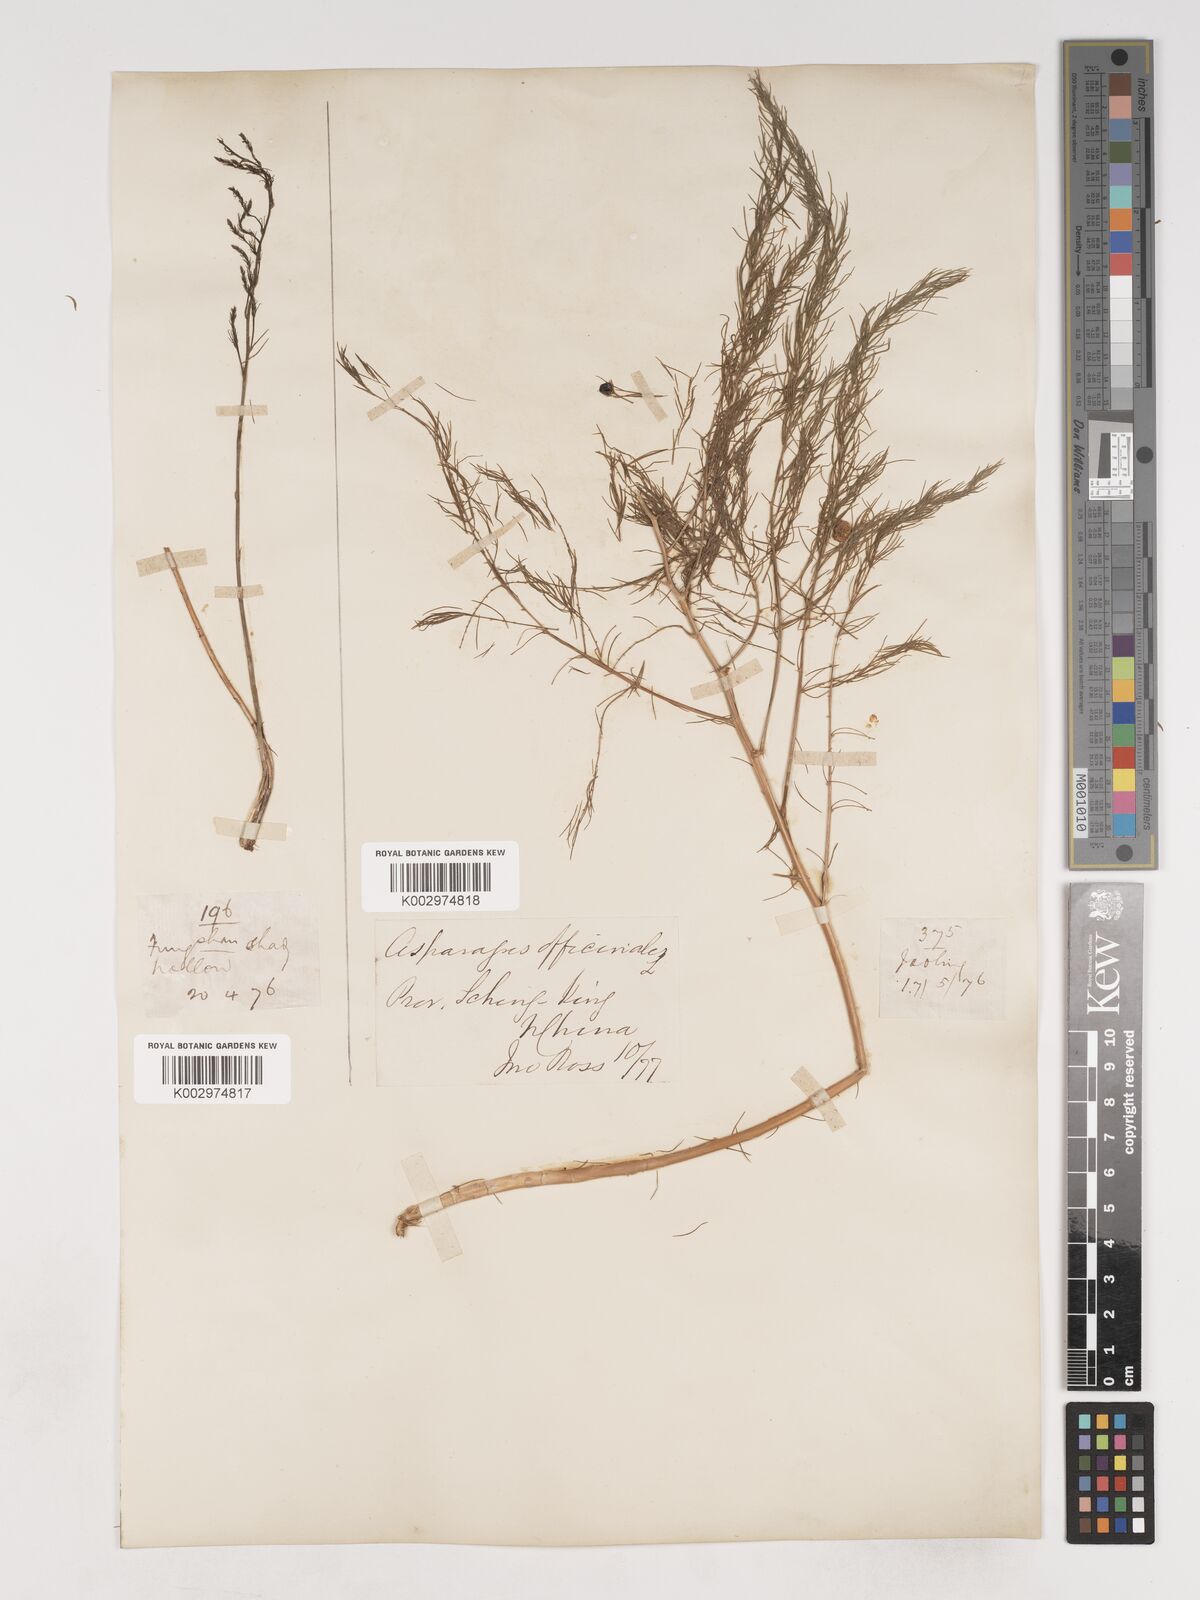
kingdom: Plantae
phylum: Tracheophyta
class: Liliopsida
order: Asparagales
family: Asparagaceae
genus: Asparagus
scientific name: Asparagus oligoclonos
